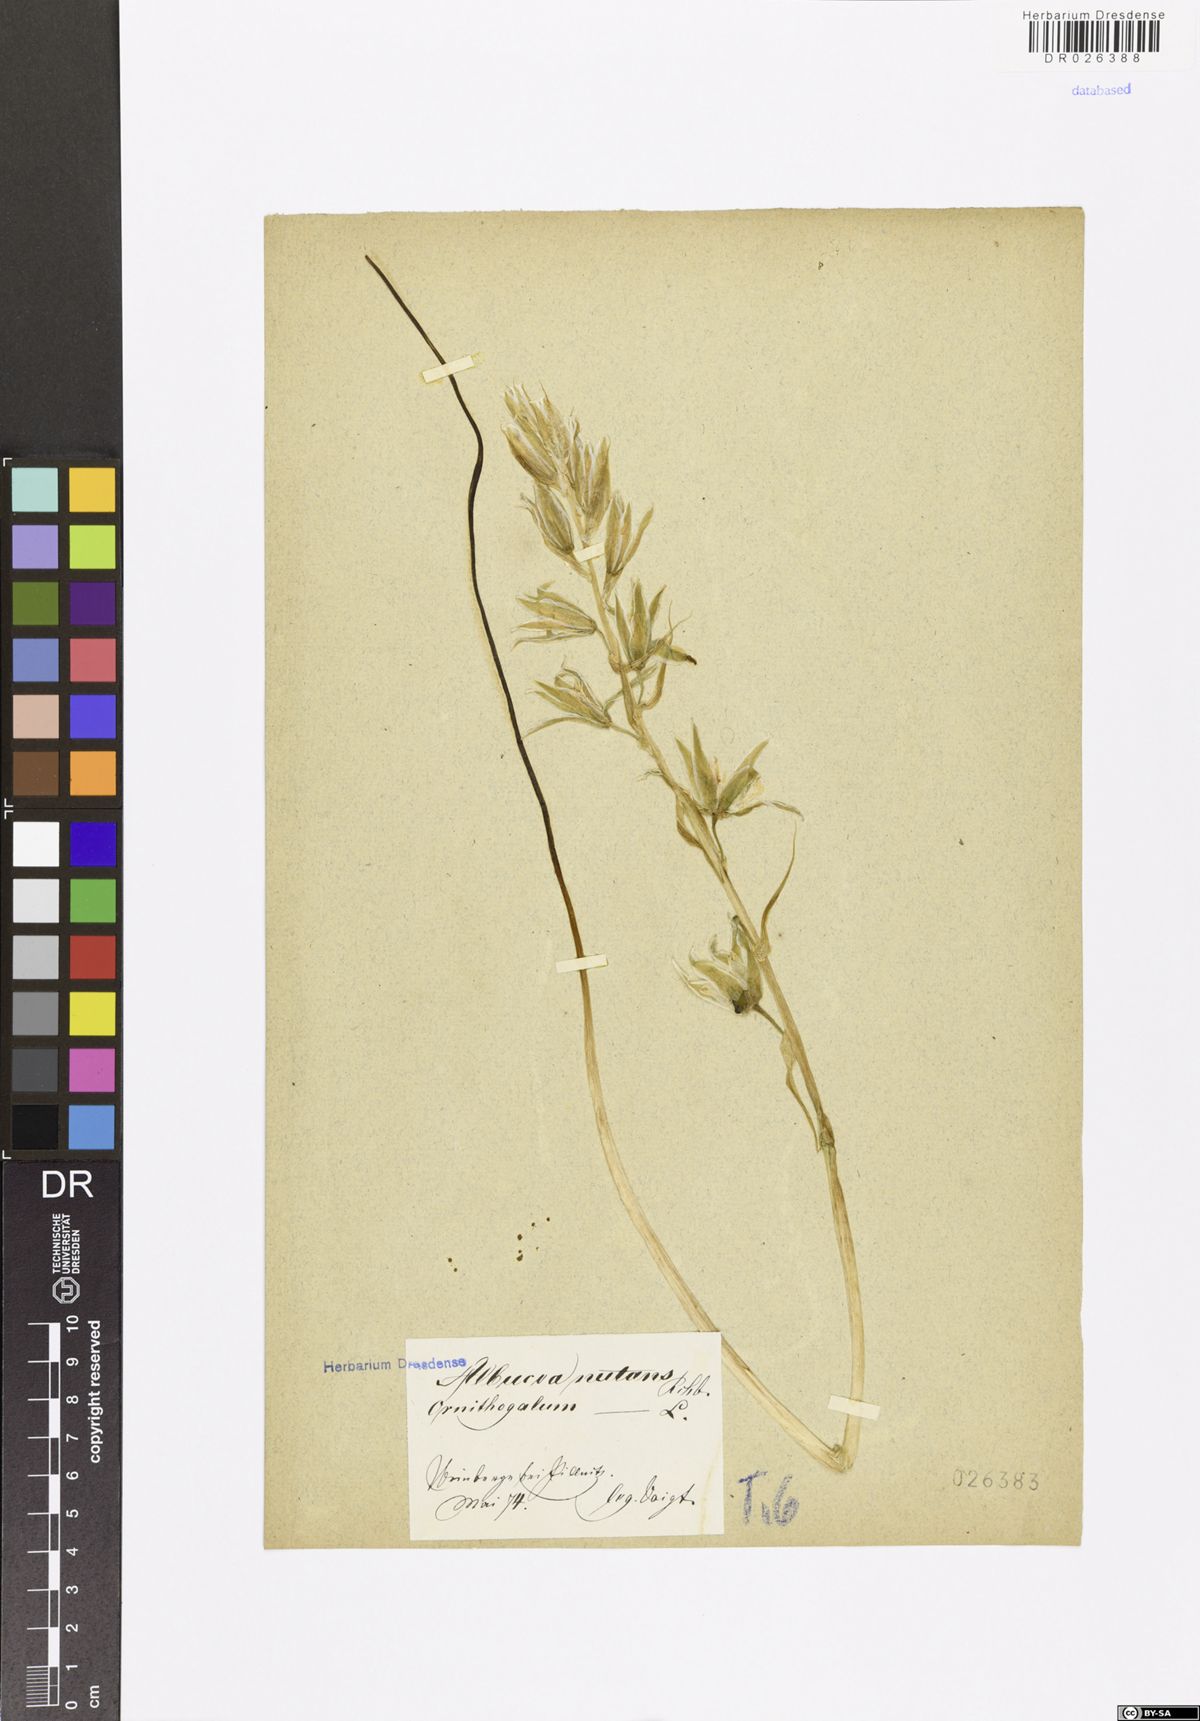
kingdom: Plantae
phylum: Tracheophyta
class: Liliopsida
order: Asparagales
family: Asparagaceae
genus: Ornithogalum
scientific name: Ornithogalum nutans
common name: Drooping star-of-bethlehem
